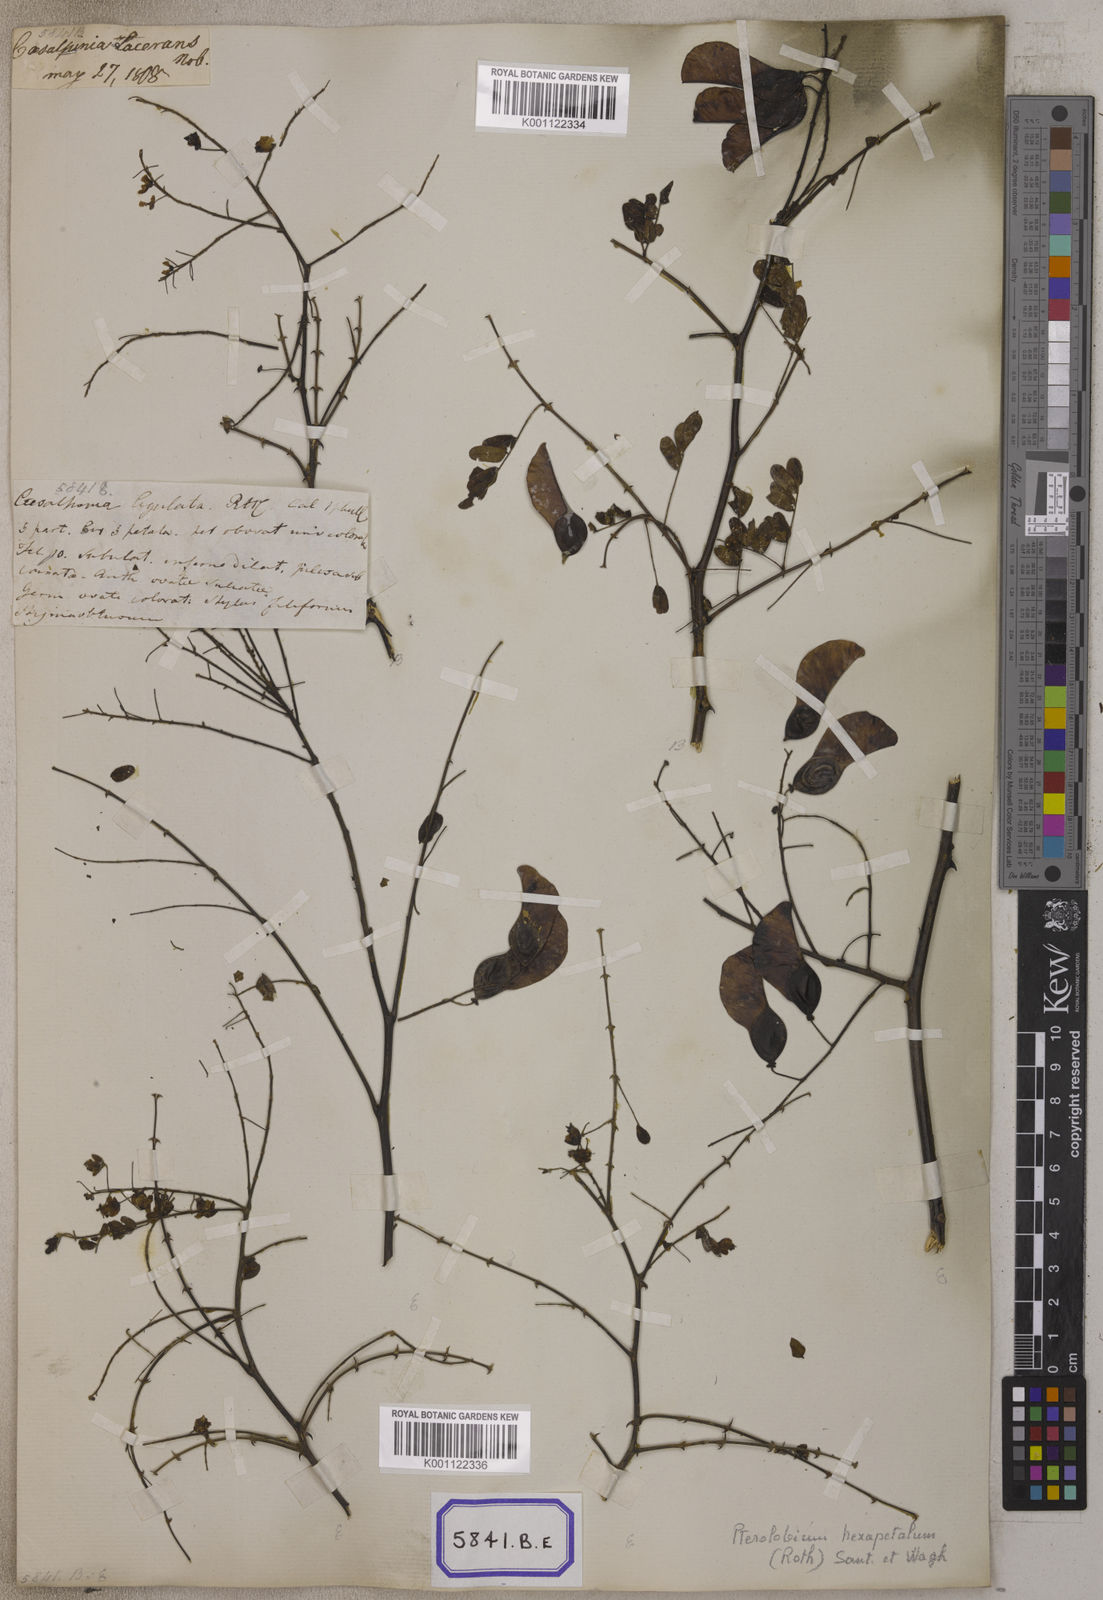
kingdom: Plantae
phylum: Tracheophyta
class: Magnoliopsida
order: Fabales
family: Fabaceae
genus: Pterolobium
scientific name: Pterolobium hexapetalum
